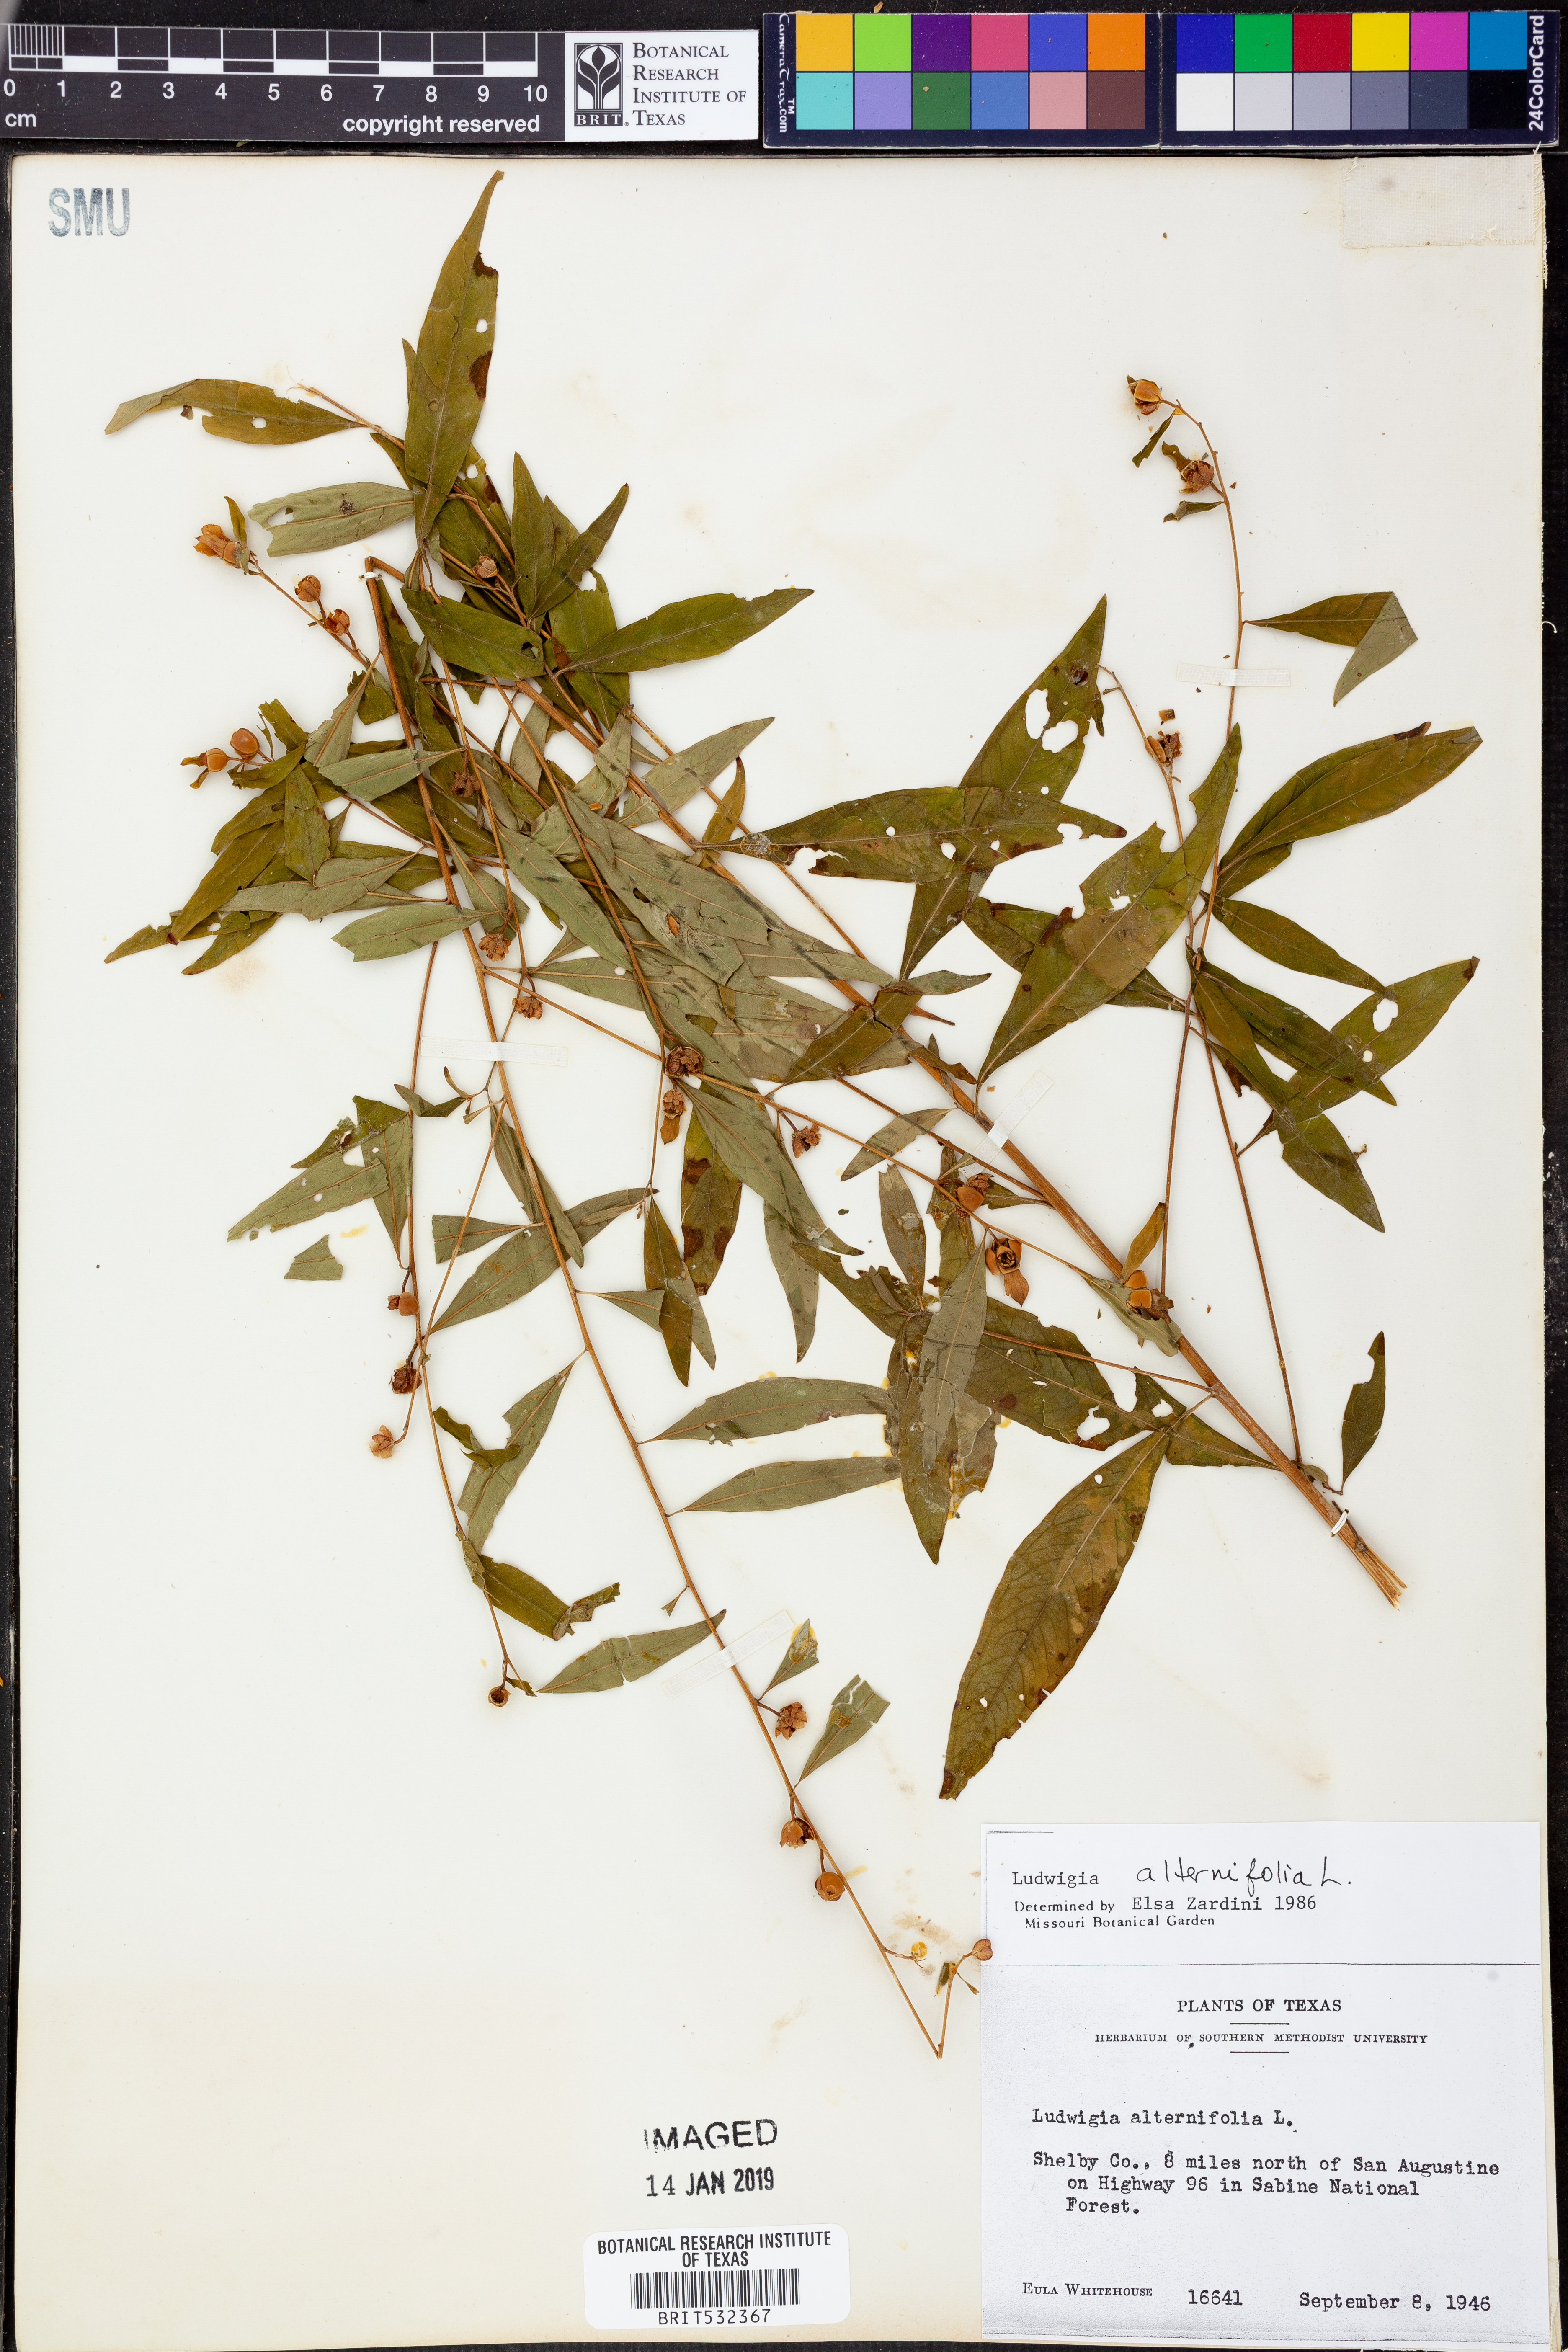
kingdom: Plantae
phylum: Tracheophyta
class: Magnoliopsida
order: Myrtales
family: Onagraceae
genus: Ludwigia
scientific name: Ludwigia alternifolia
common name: Rattlebox
